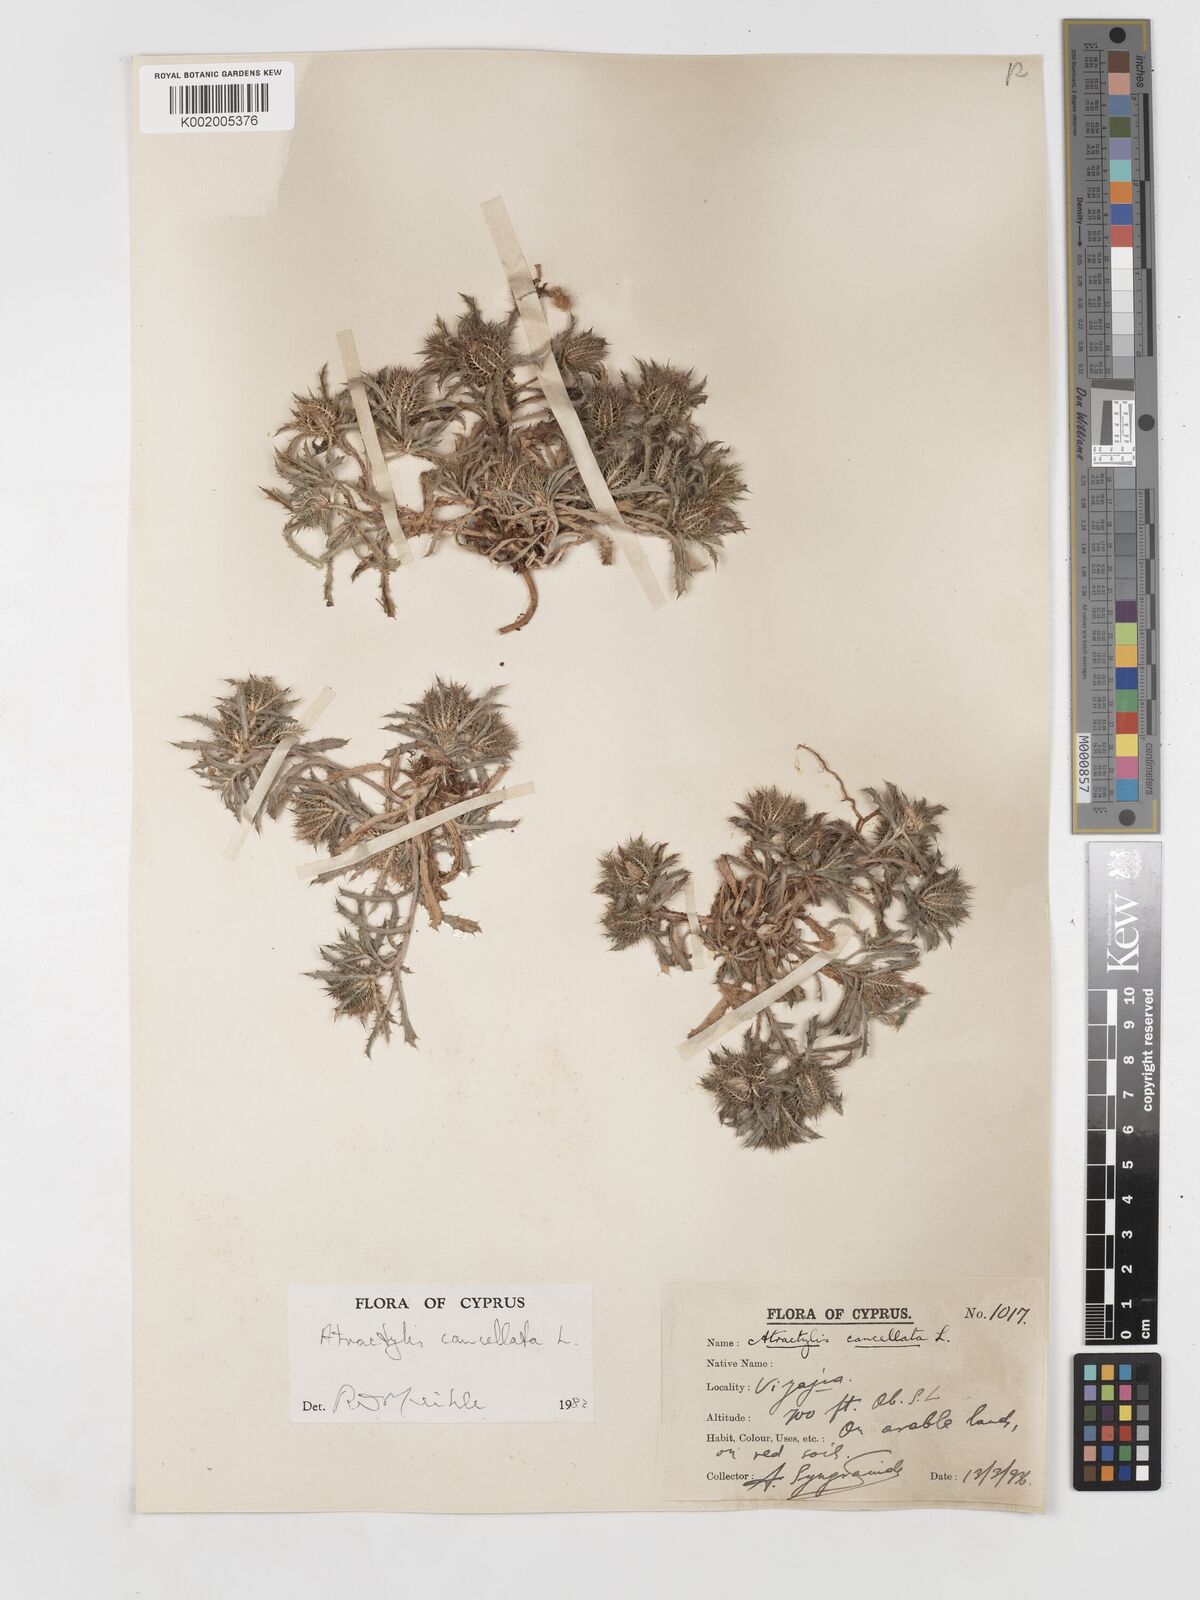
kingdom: Plantae
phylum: Tracheophyta
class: Magnoliopsida
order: Asterales
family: Asteraceae
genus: Atractylis
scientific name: Atractylis cancellata
